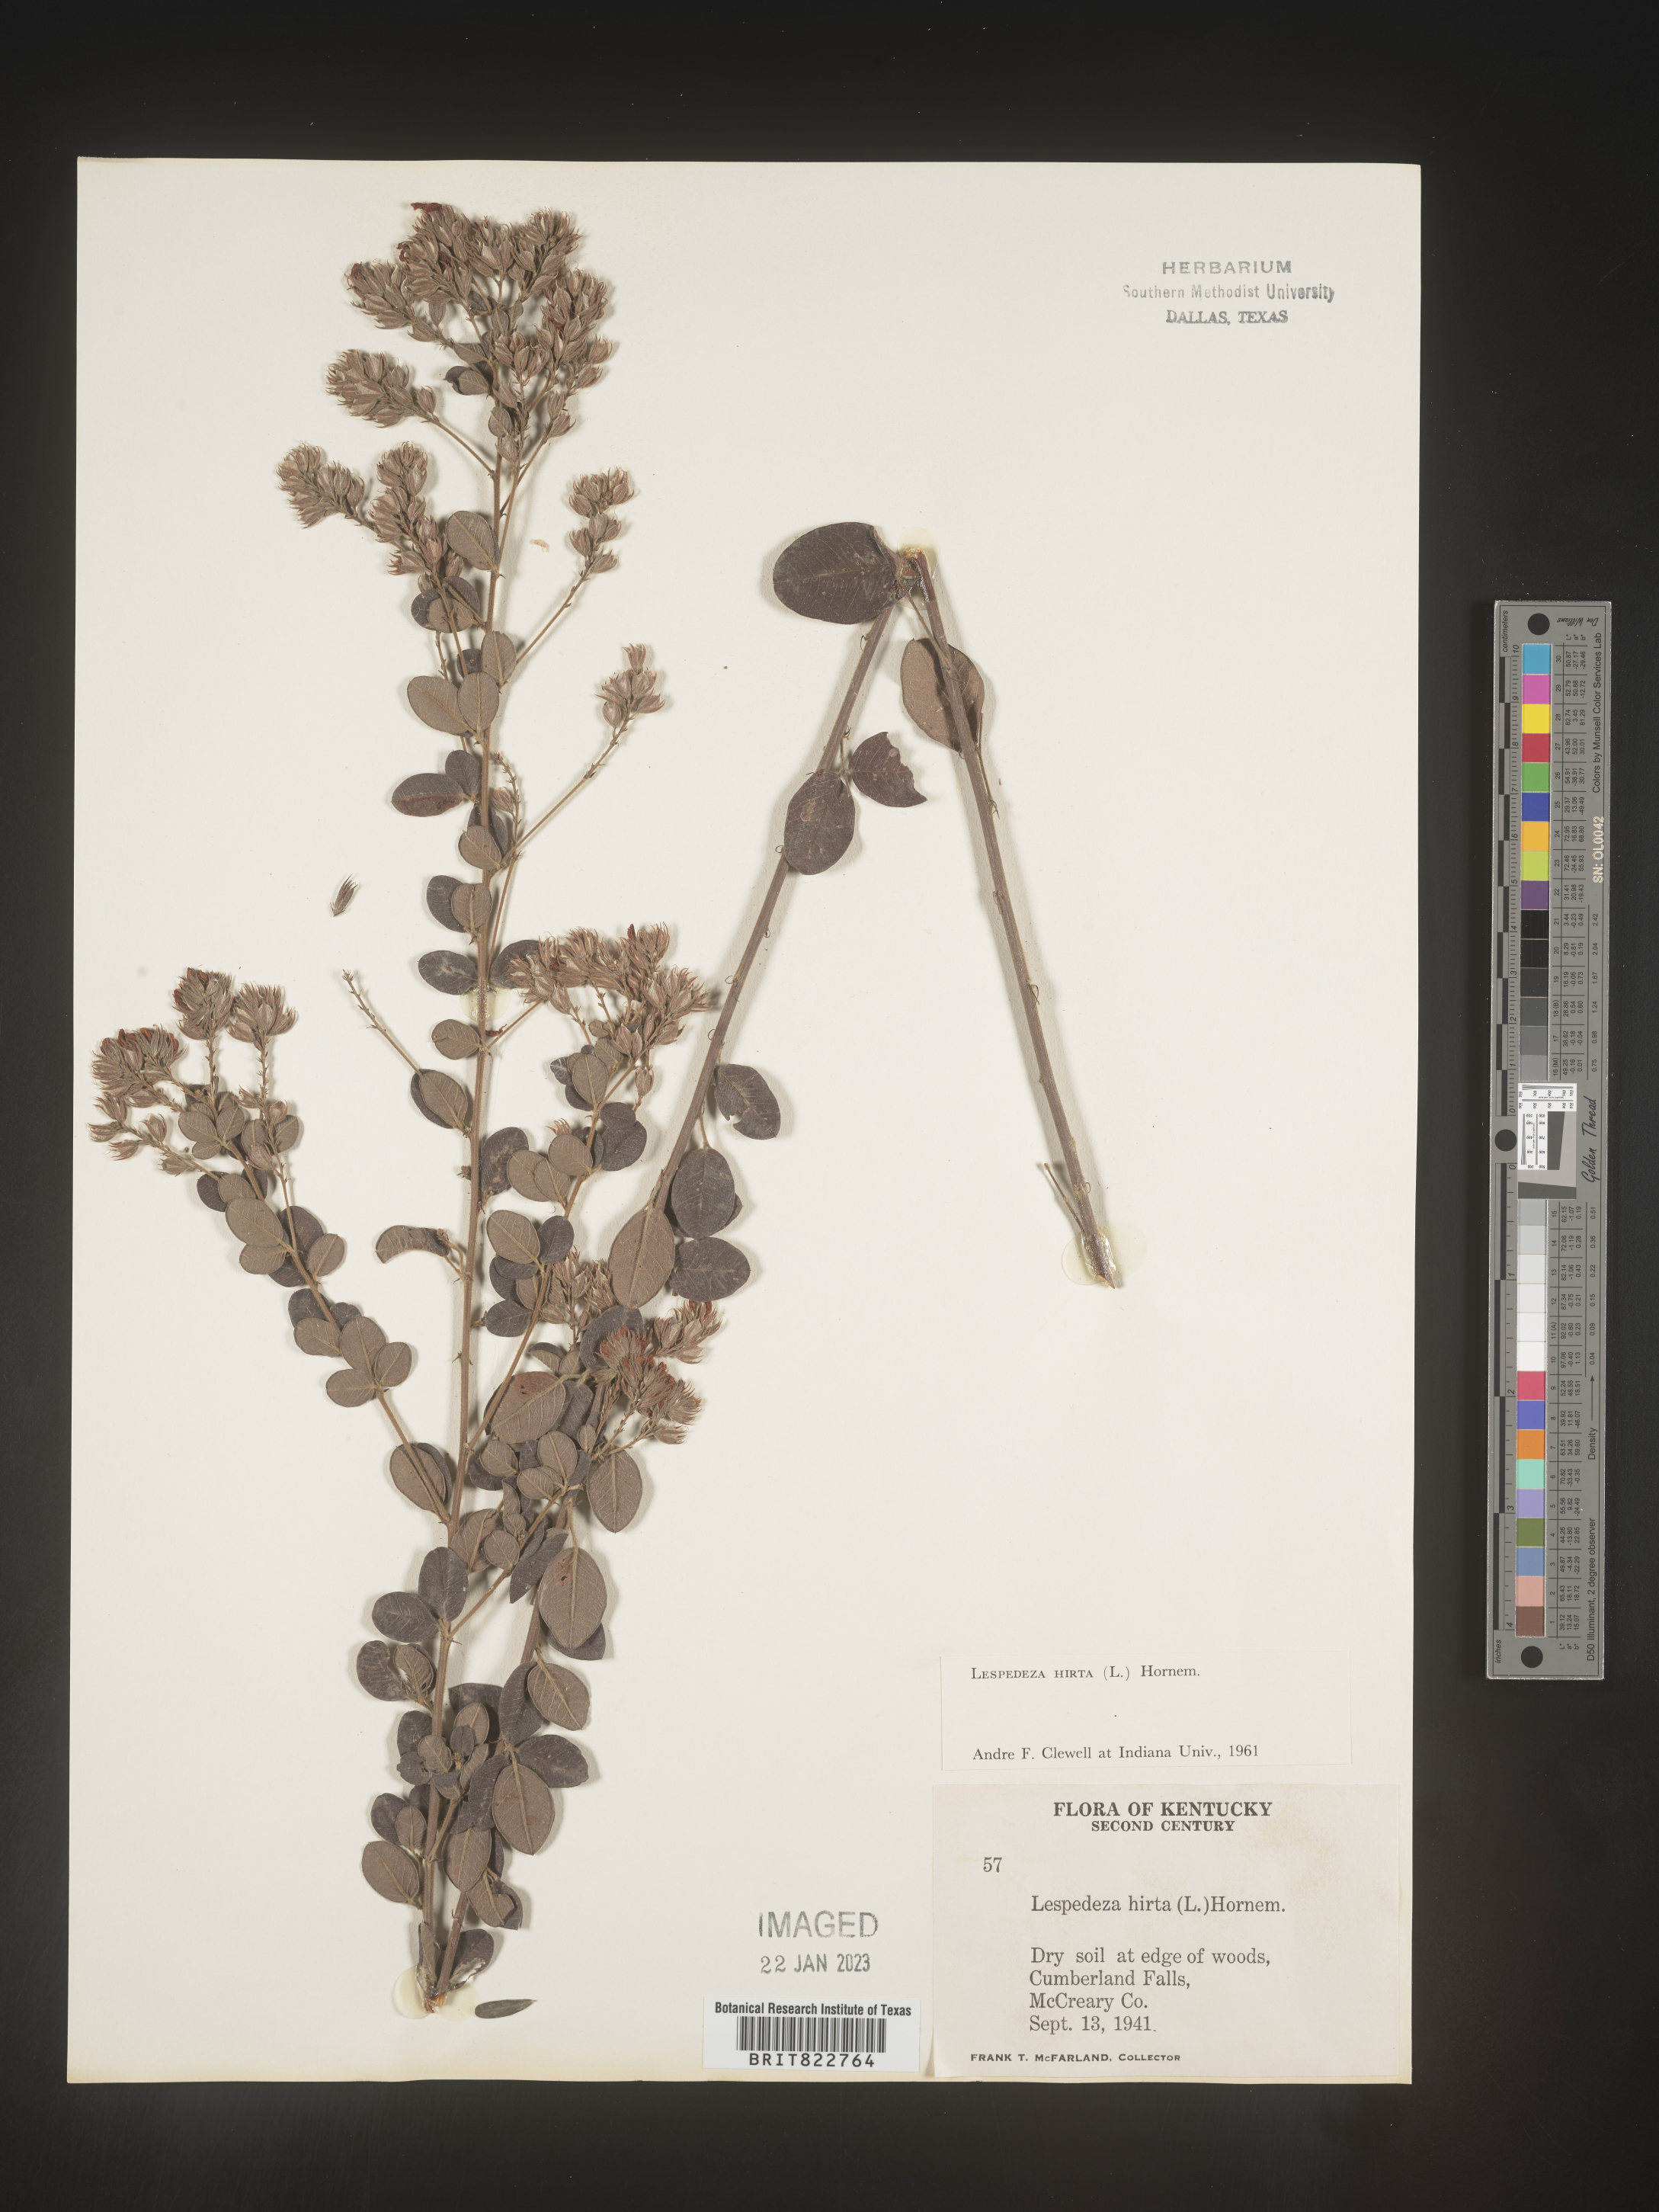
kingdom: Plantae
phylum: Tracheophyta
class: Magnoliopsida
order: Fabales
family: Fabaceae
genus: Lespedeza
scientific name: Lespedeza hirta
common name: Hairy lespedeza
